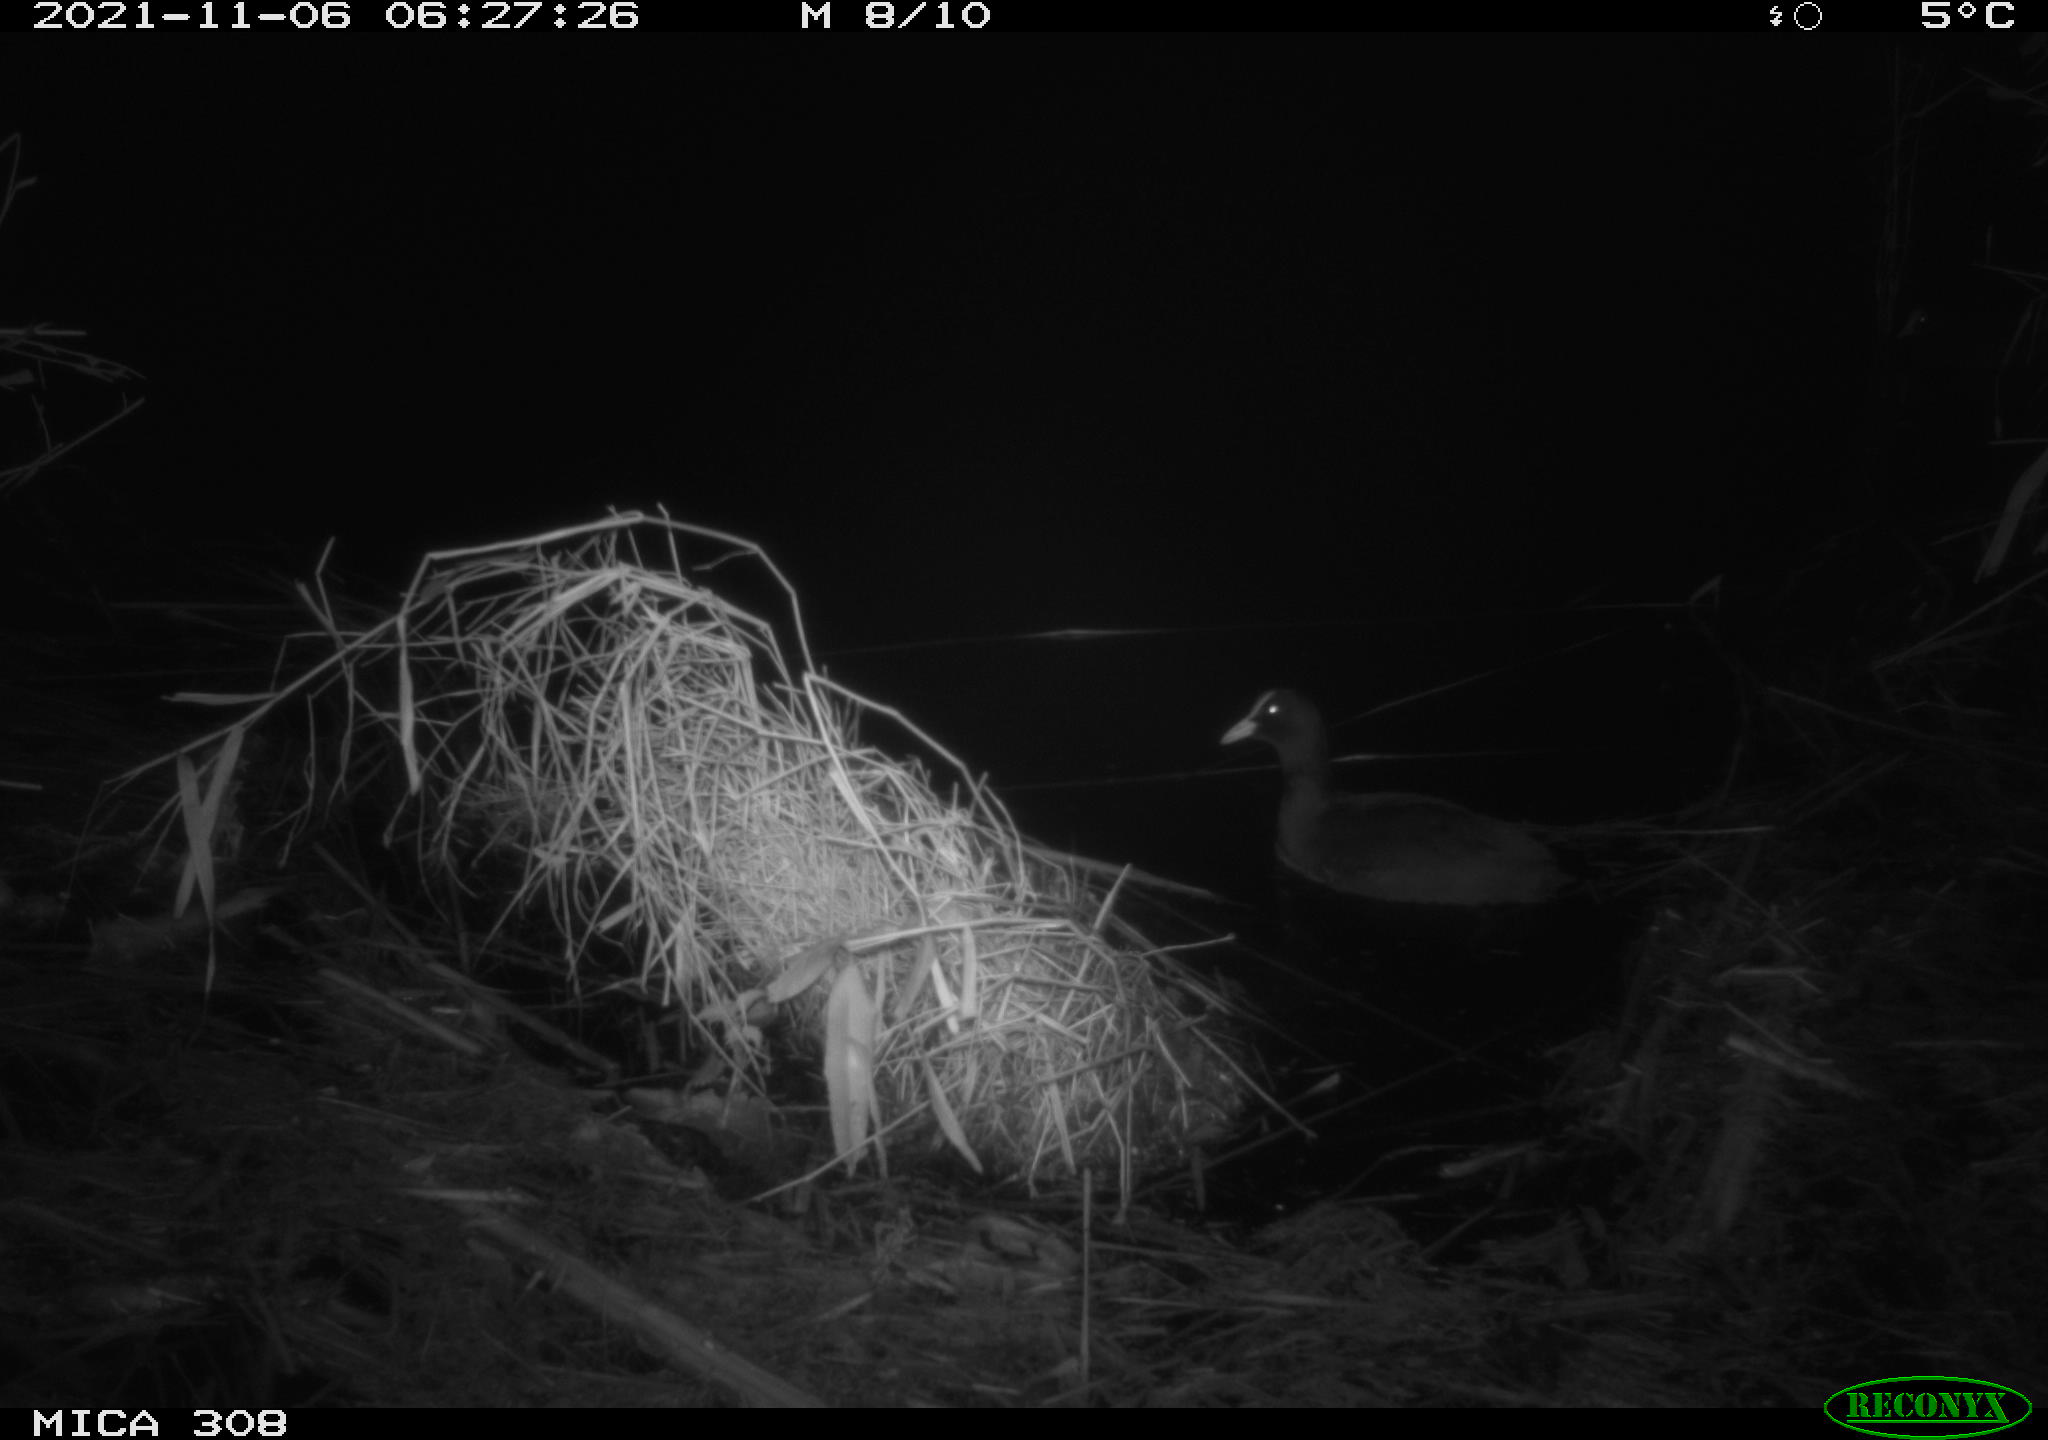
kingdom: Animalia
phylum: Chordata
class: Aves
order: Gruiformes
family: Rallidae
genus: Fulica
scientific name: Fulica atra
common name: Eurasian coot
